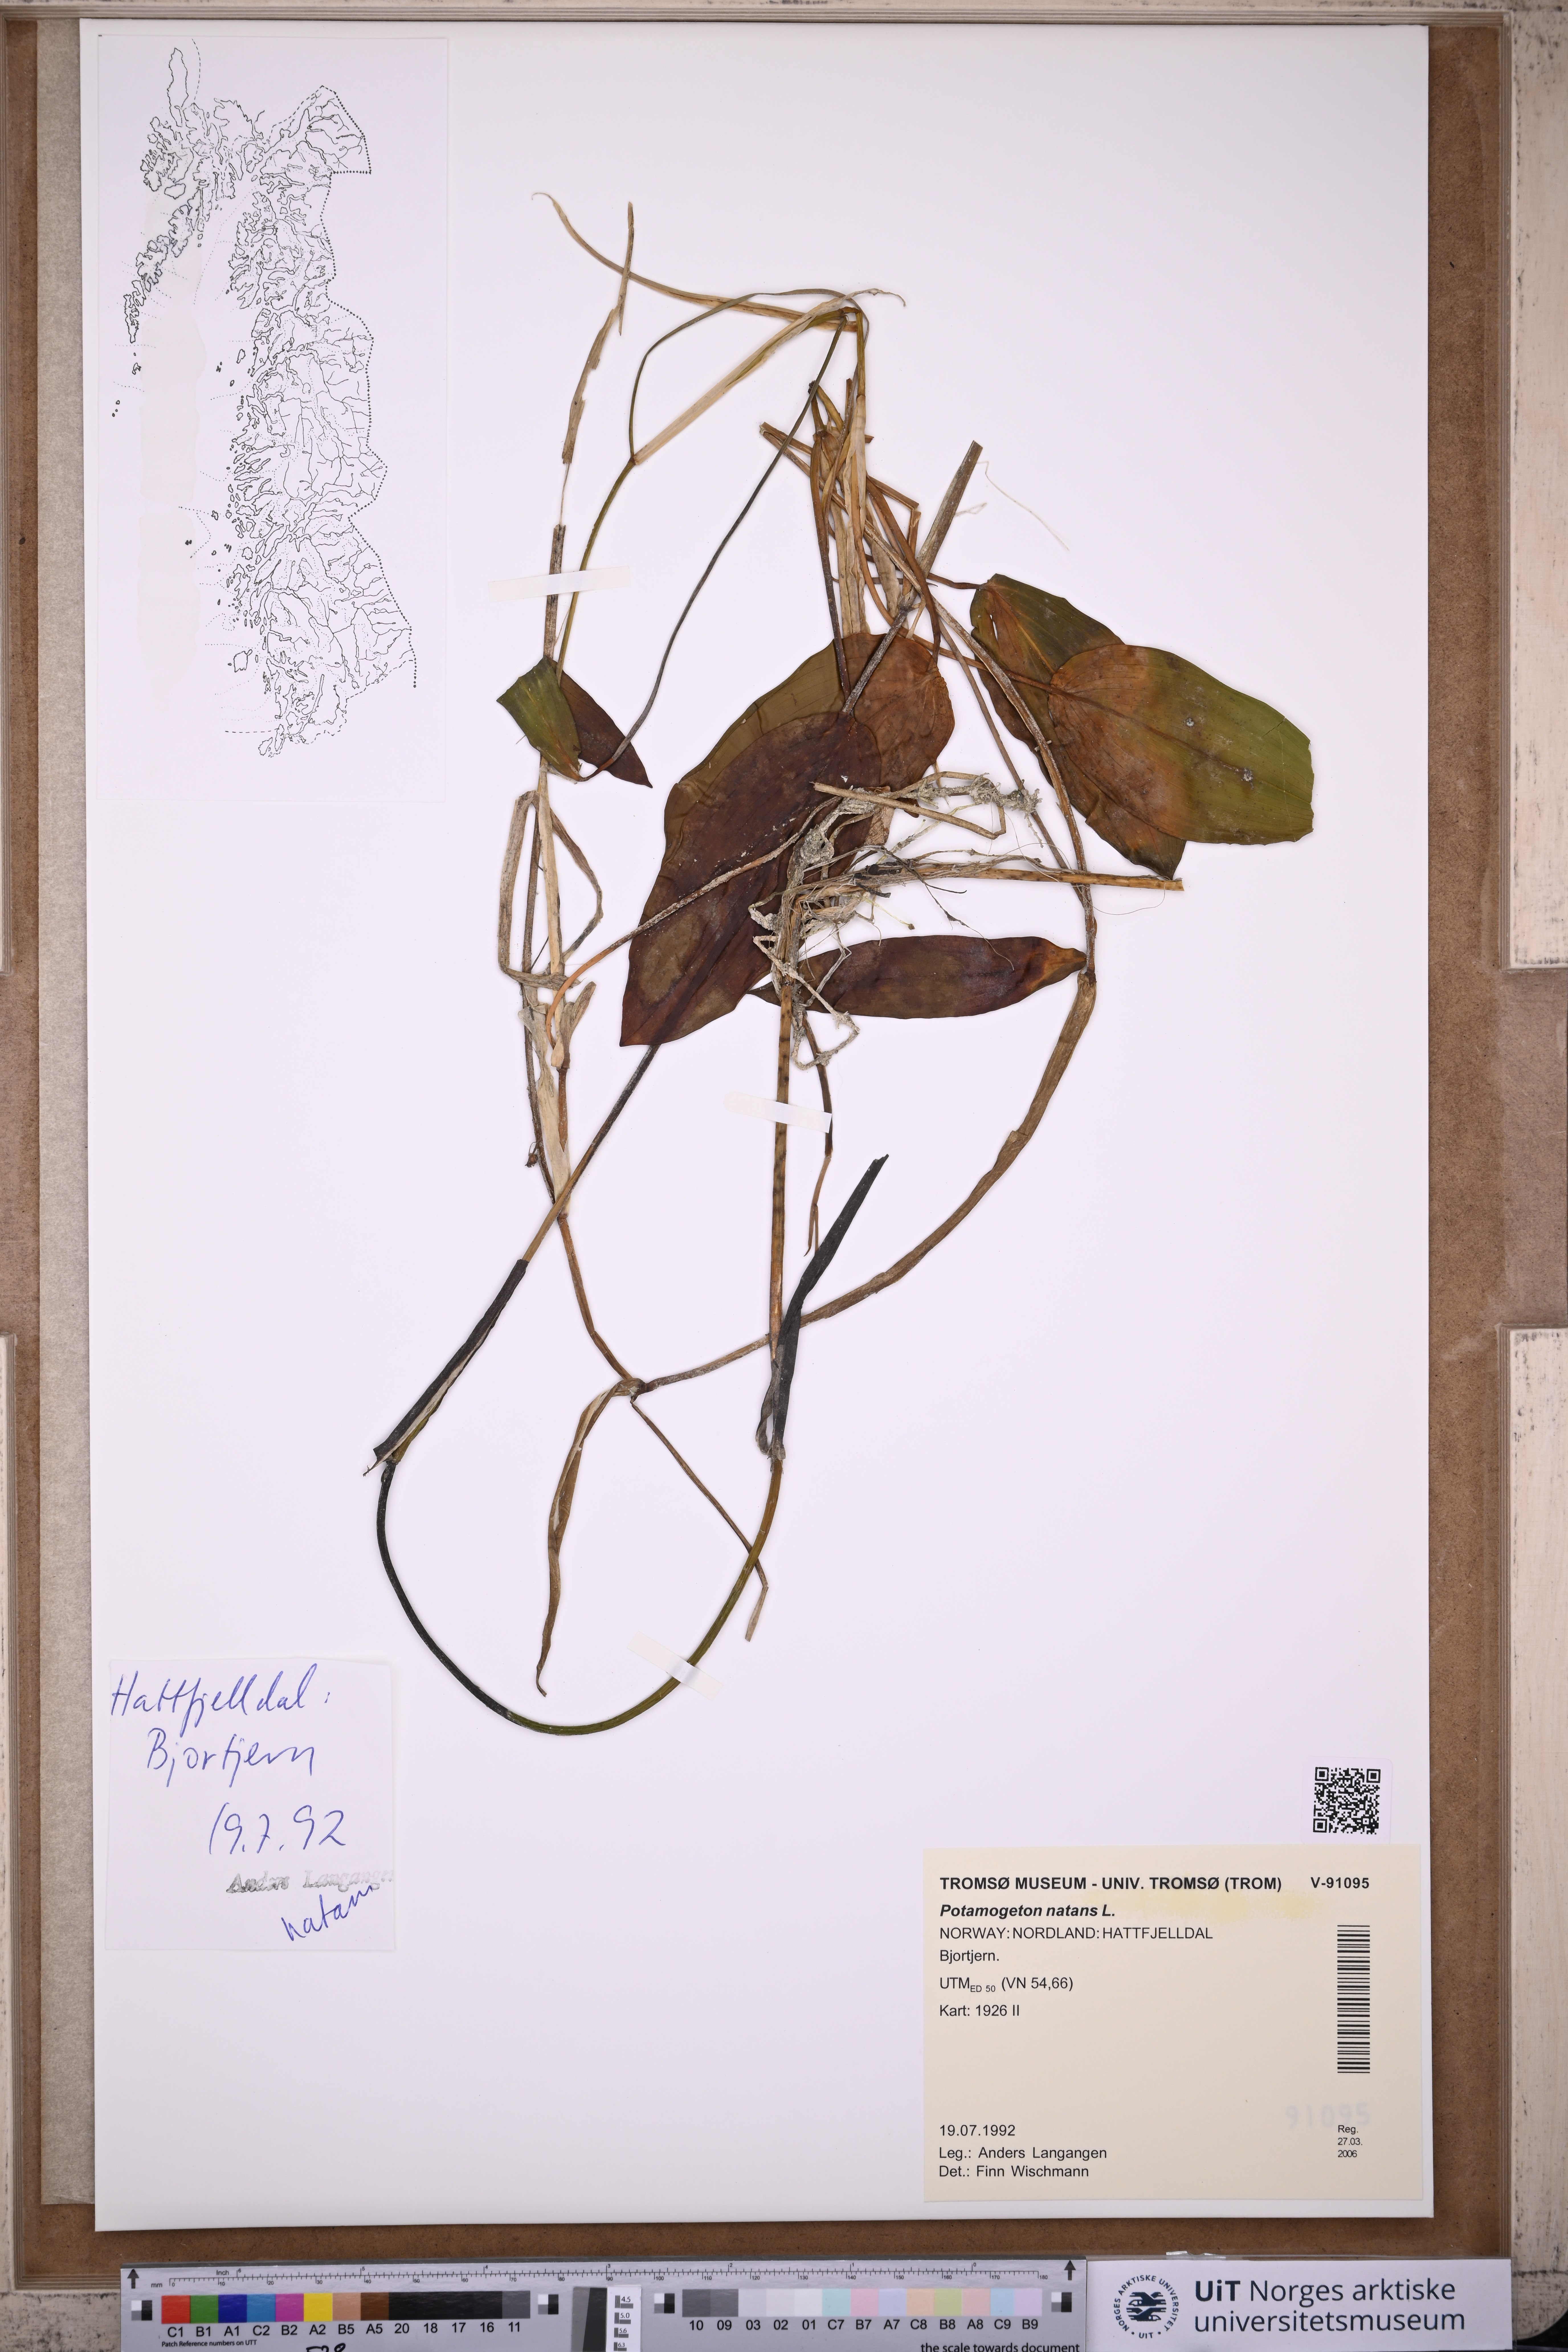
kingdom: Plantae
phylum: Tracheophyta
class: Liliopsida
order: Alismatales
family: Potamogetonaceae
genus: Potamogeton
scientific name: Potamogeton natans
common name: Broad-leaved pondweed
